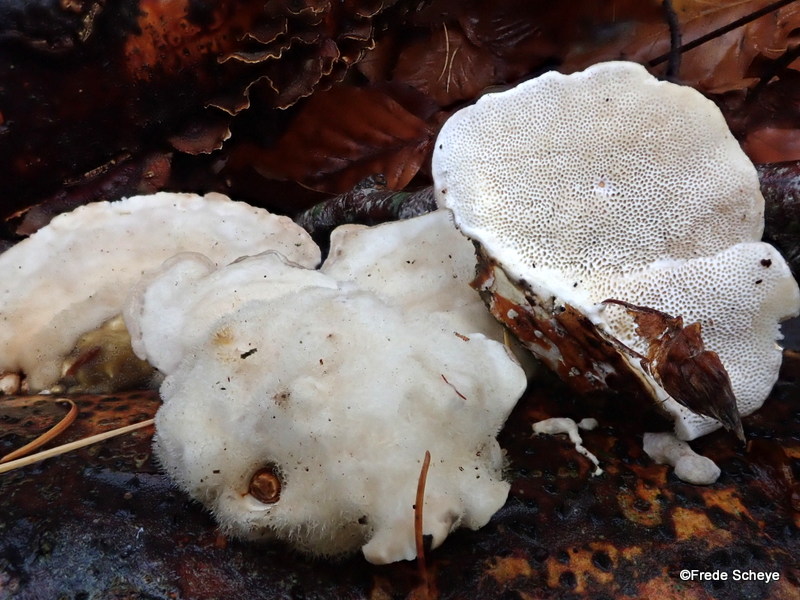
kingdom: Fungi
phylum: Basidiomycota
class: Agaricomycetes
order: Polyporales
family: Polyporaceae
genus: Trametes
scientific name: Trametes hirsuta
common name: håret læderporesvamp
